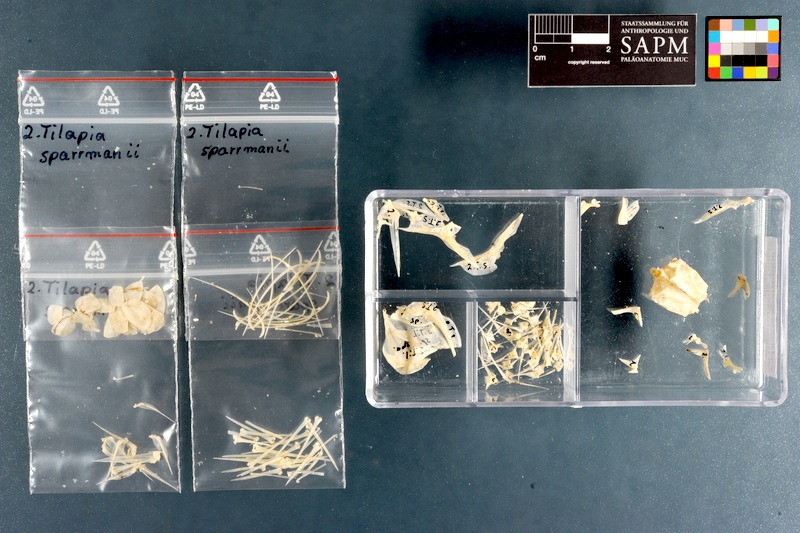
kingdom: Animalia
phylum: Chordata
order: Perciformes
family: Cichlidae
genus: Tilapia
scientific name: Tilapia sparrmanii
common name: Banded tilapia
